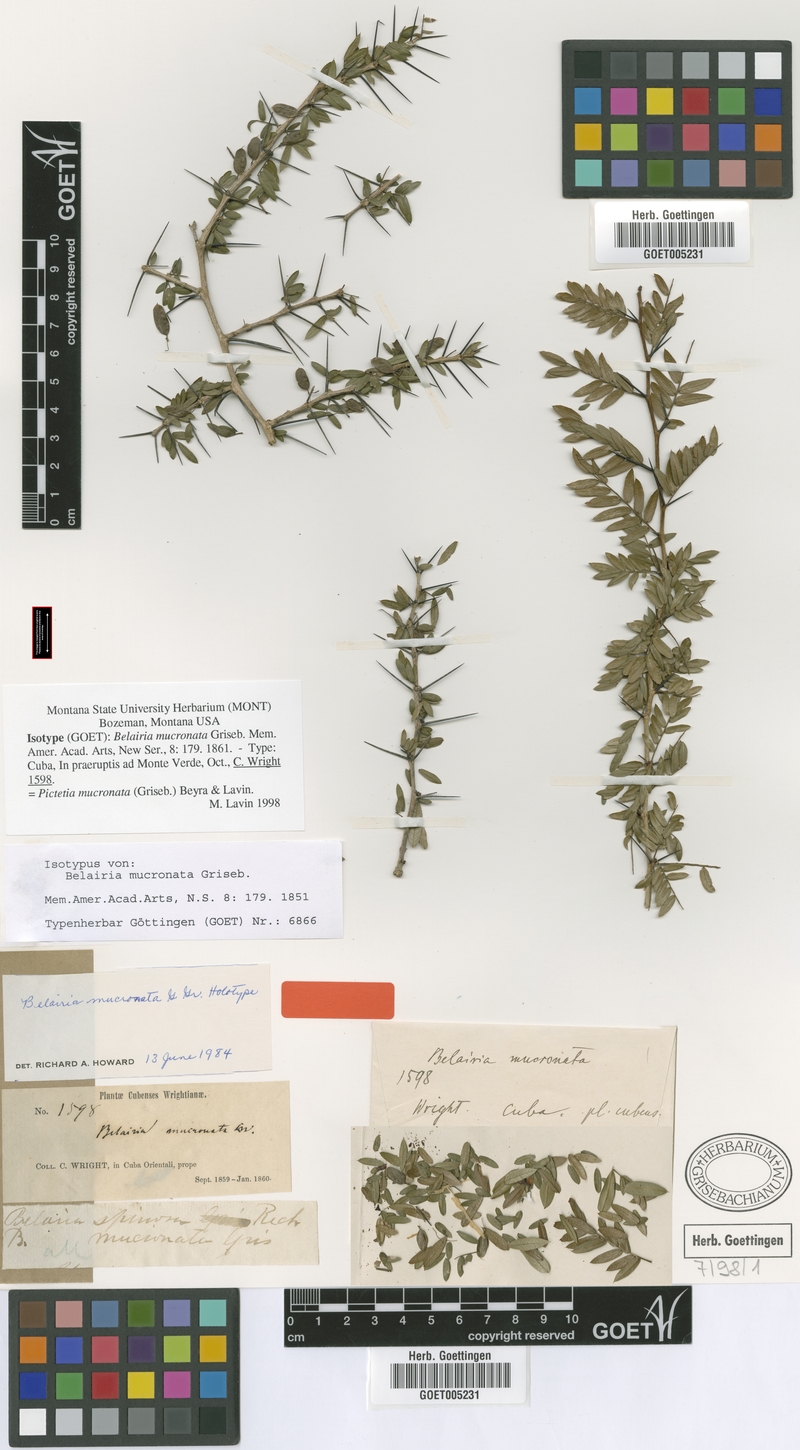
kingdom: Plantae
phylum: Tracheophyta
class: Magnoliopsida
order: Fabales
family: Fabaceae
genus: Pictetia
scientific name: Pictetia mucronata
